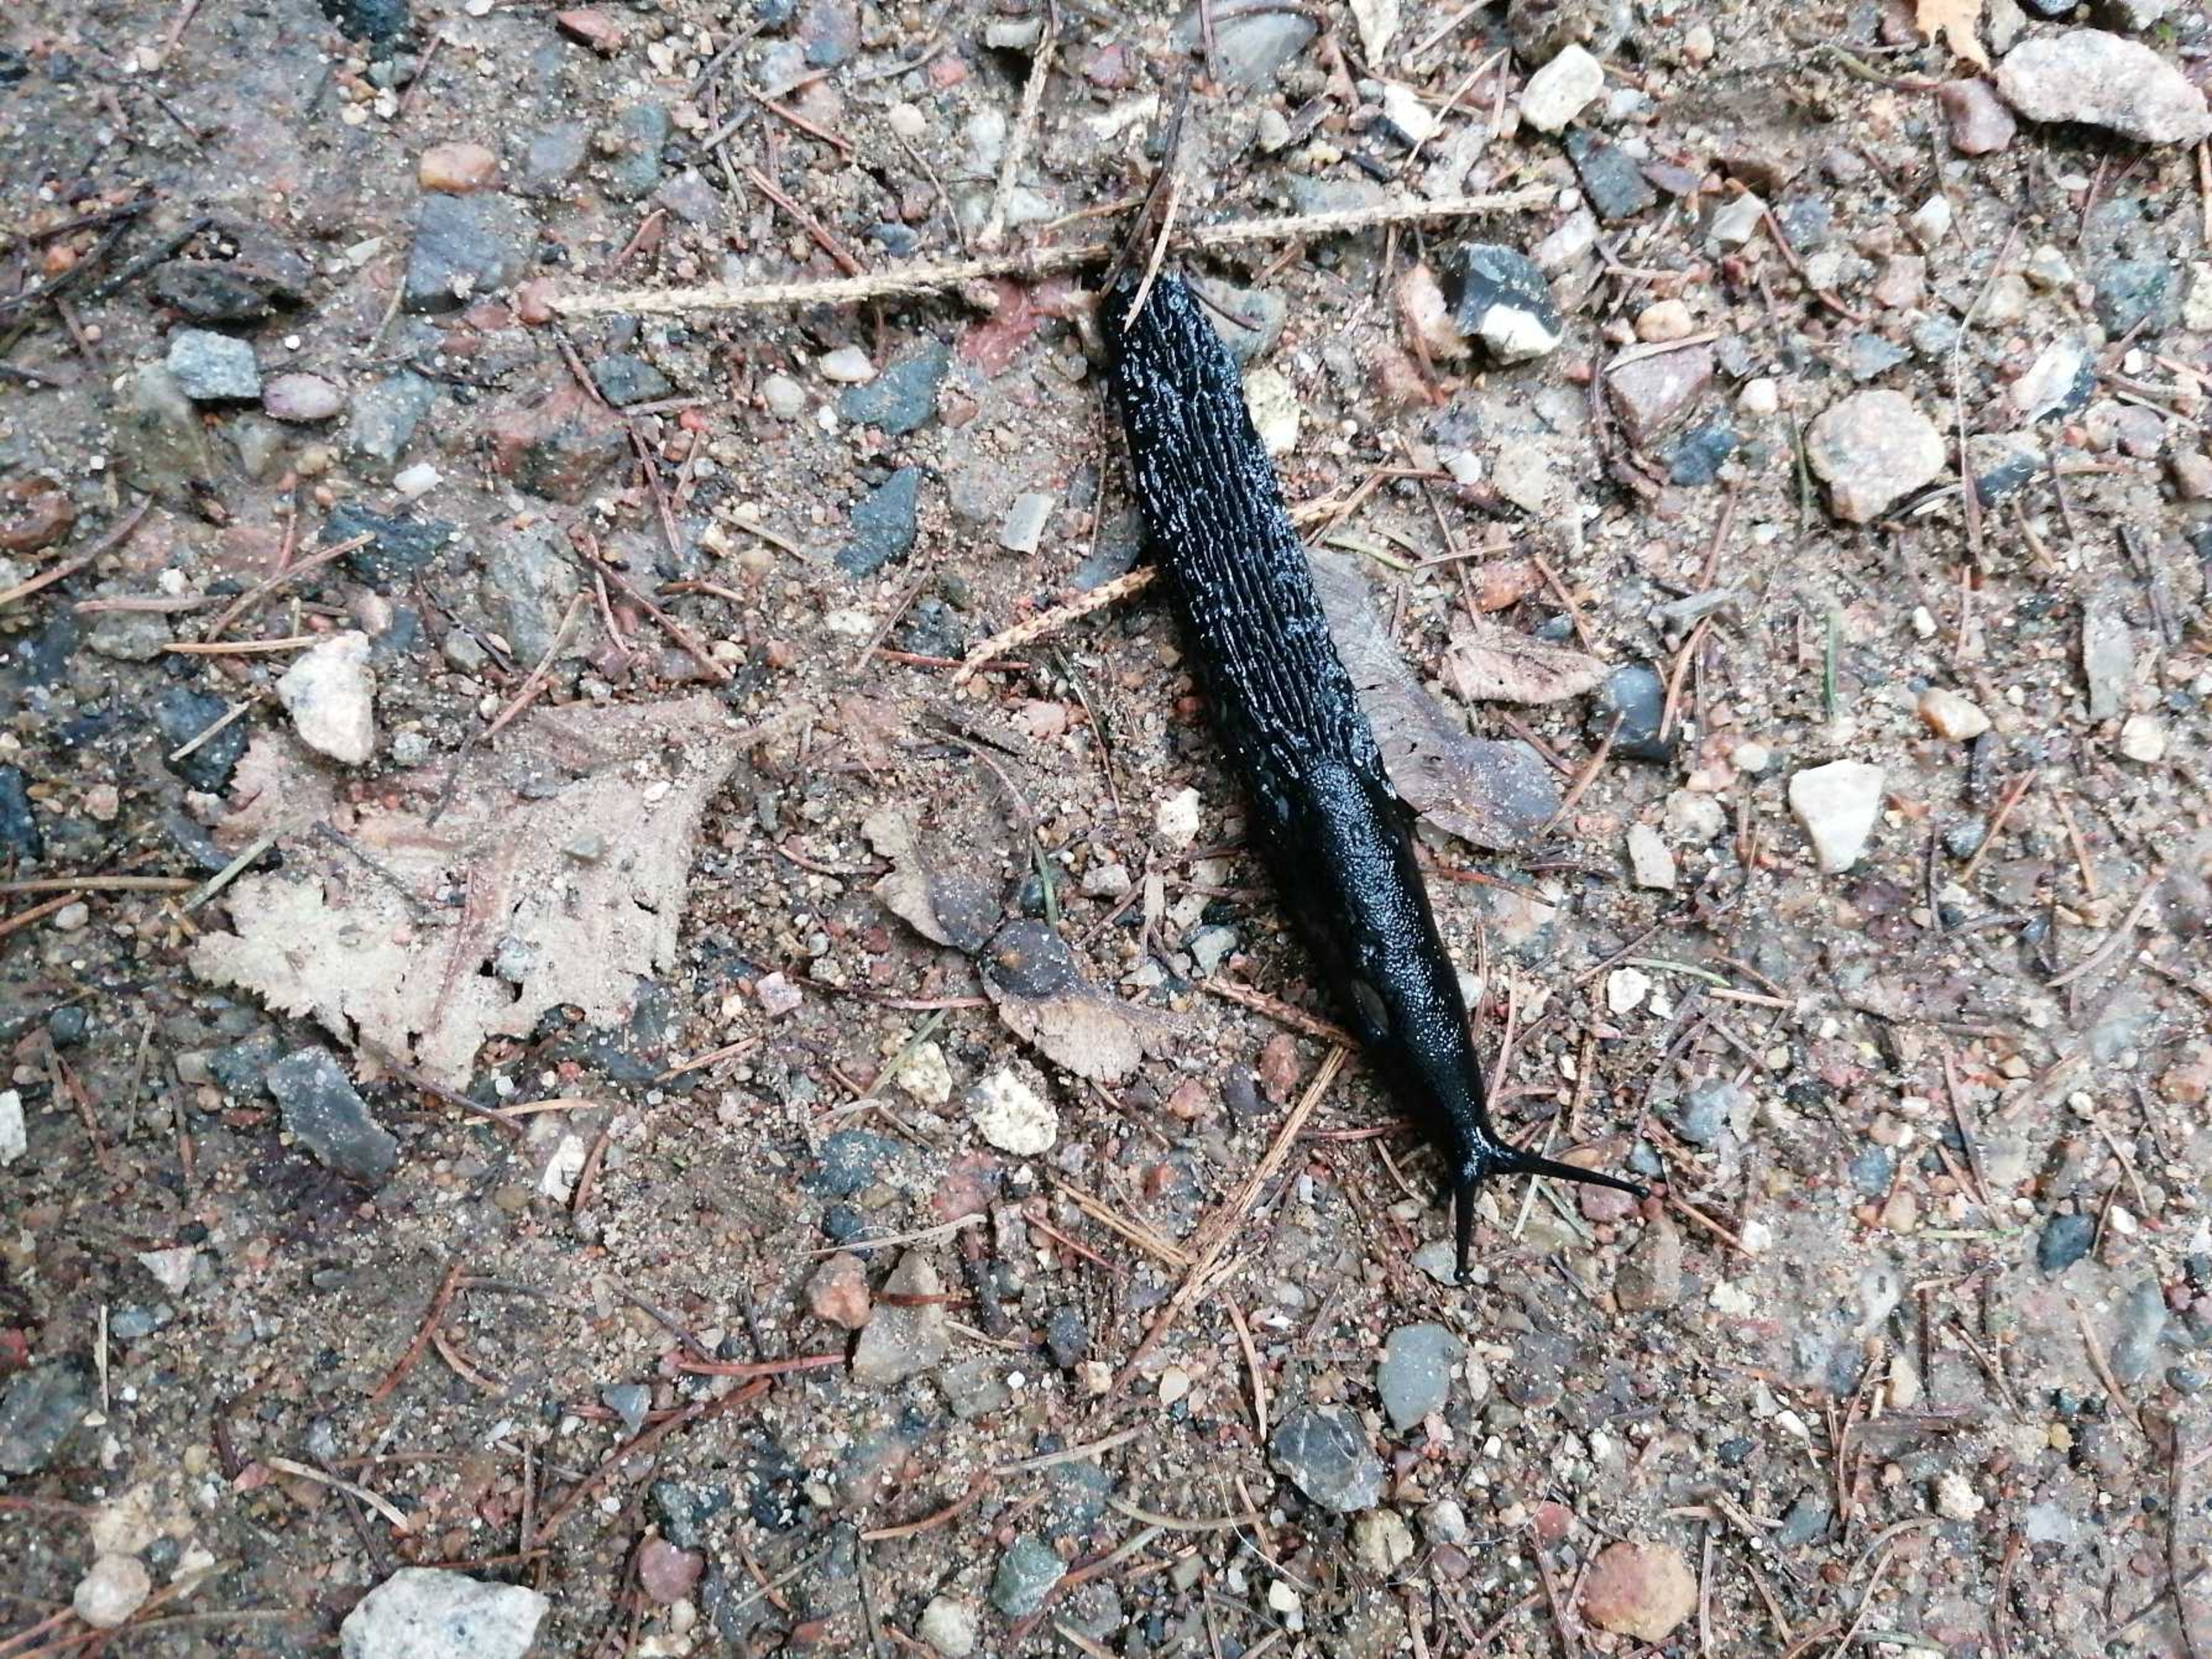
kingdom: Animalia
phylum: Mollusca
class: Gastropoda
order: Stylommatophora
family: Arionidae
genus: Arion
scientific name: Arion ater
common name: Sort skovsnegl
